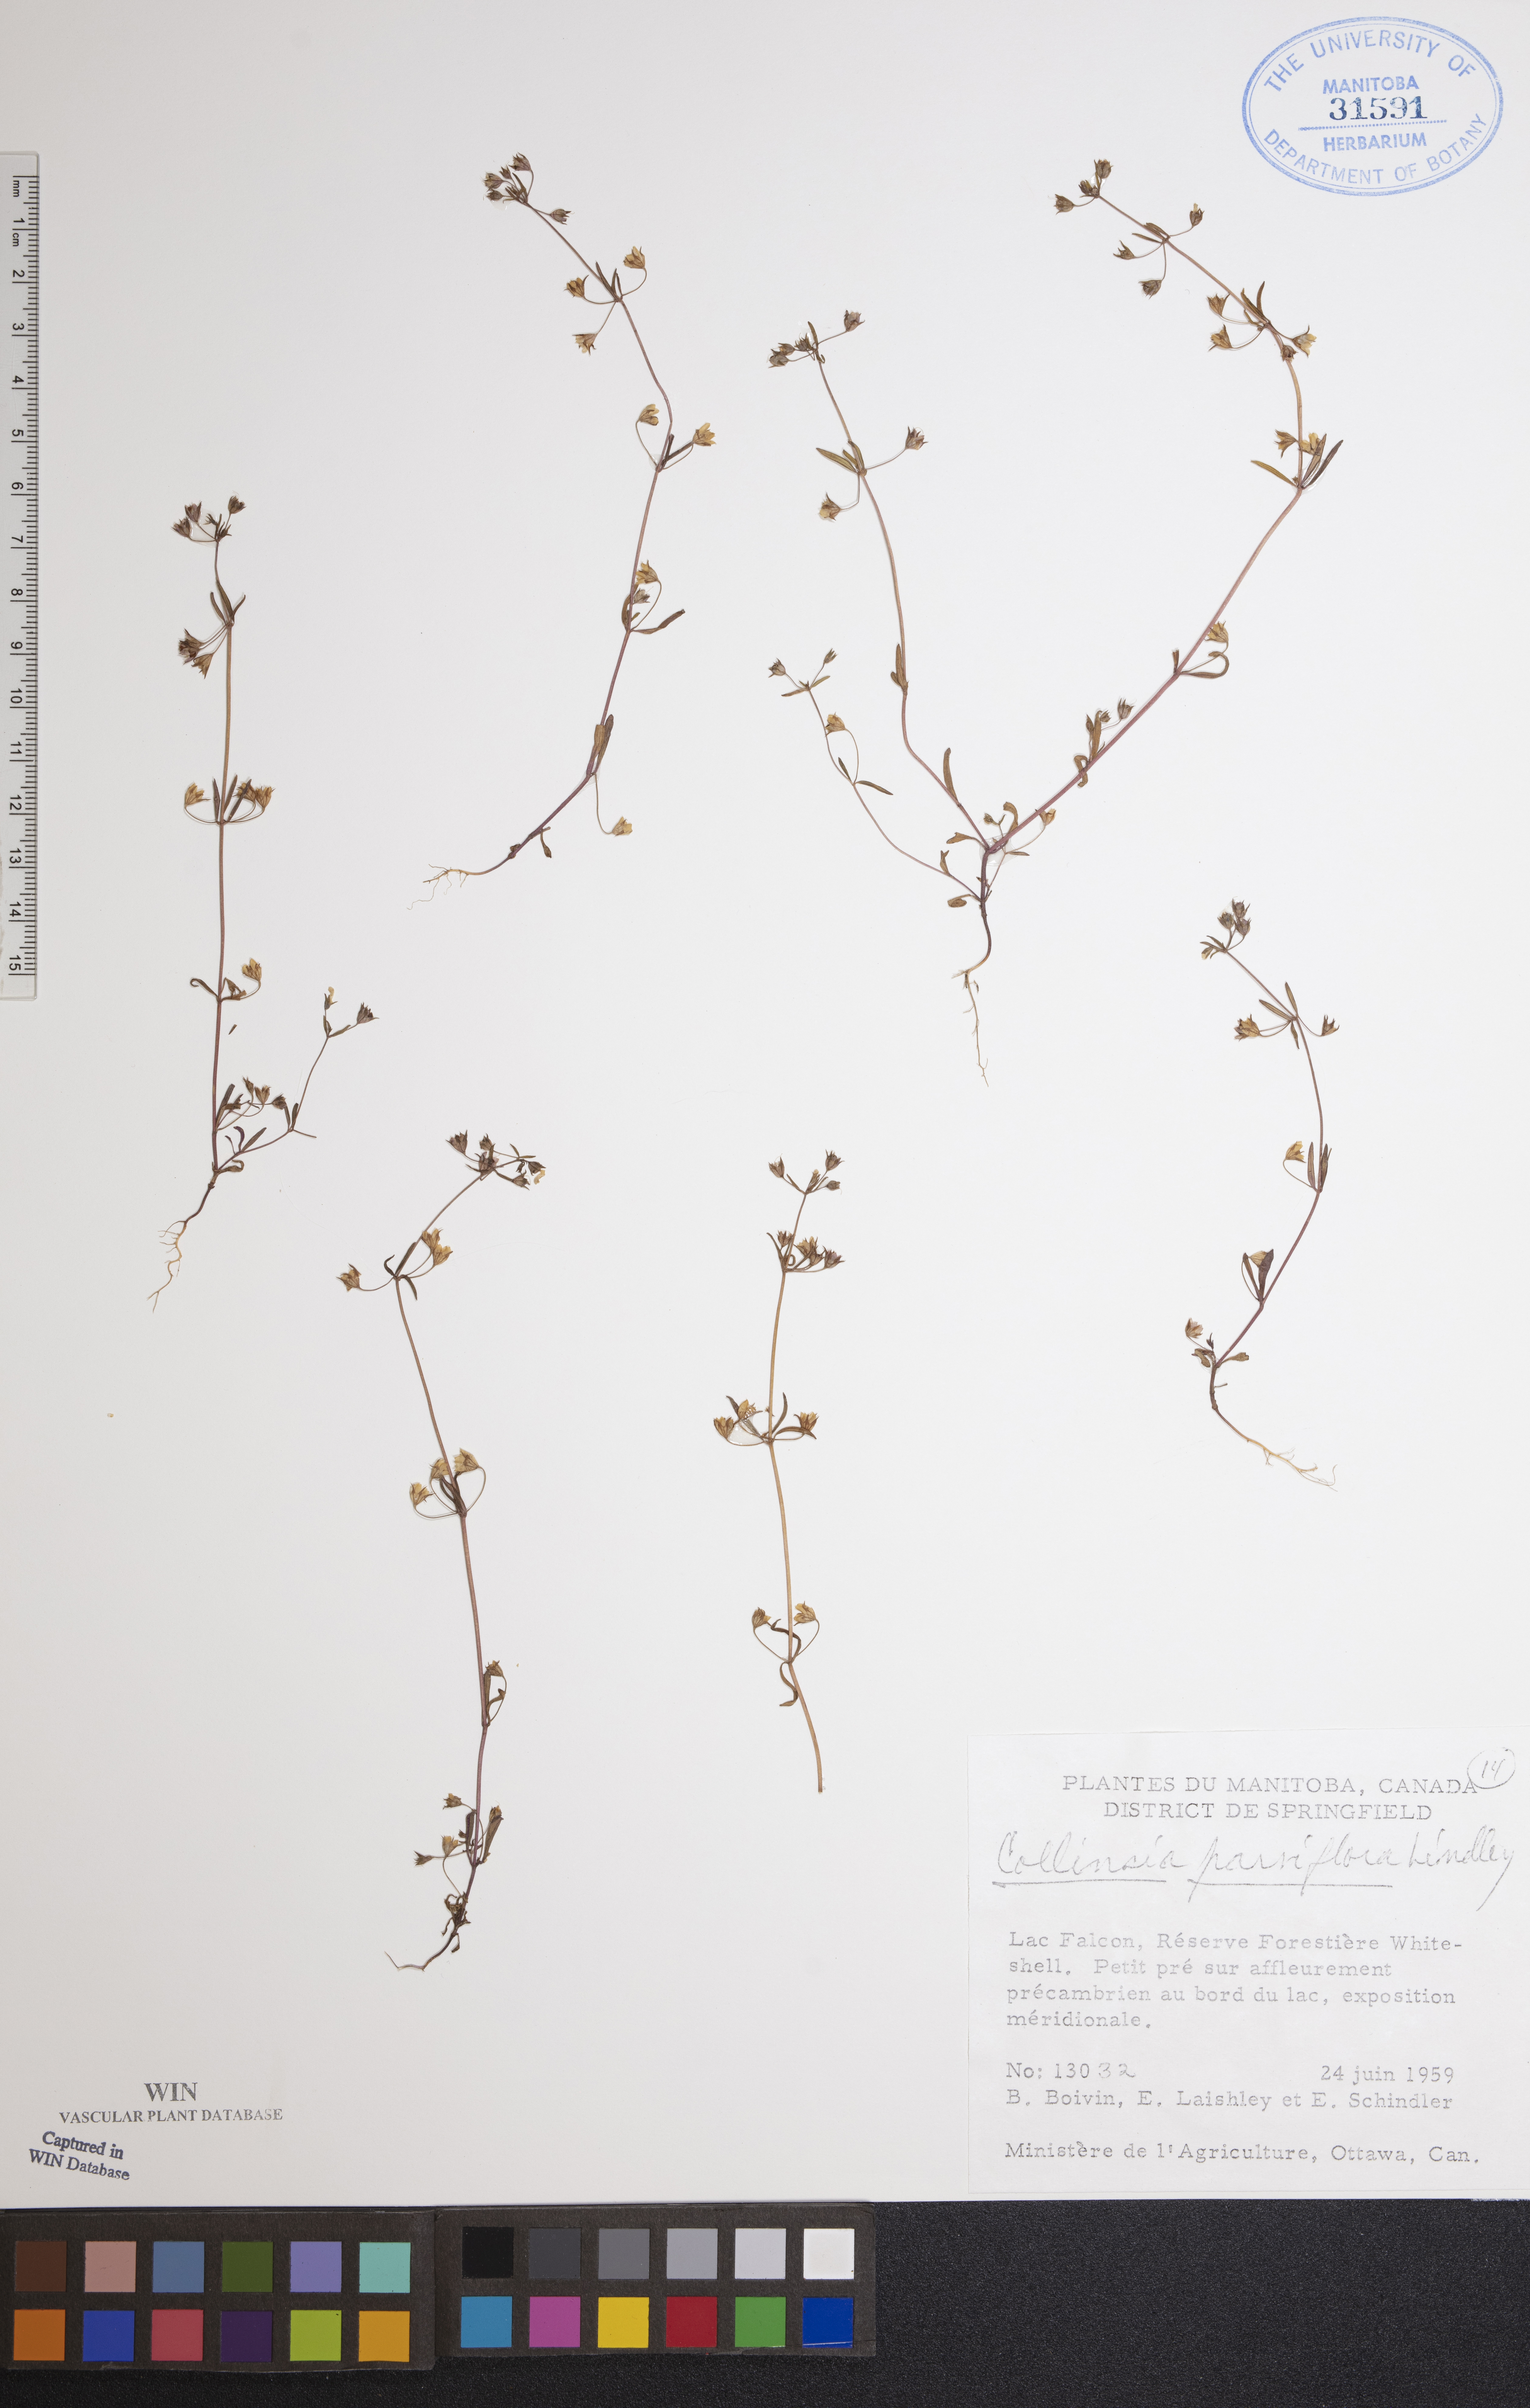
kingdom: Plantae
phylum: Tracheophyta
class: Magnoliopsida
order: Lamiales
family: Plantaginaceae
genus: Collinsia
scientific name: Collinsia parviflora
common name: Blue-lips
